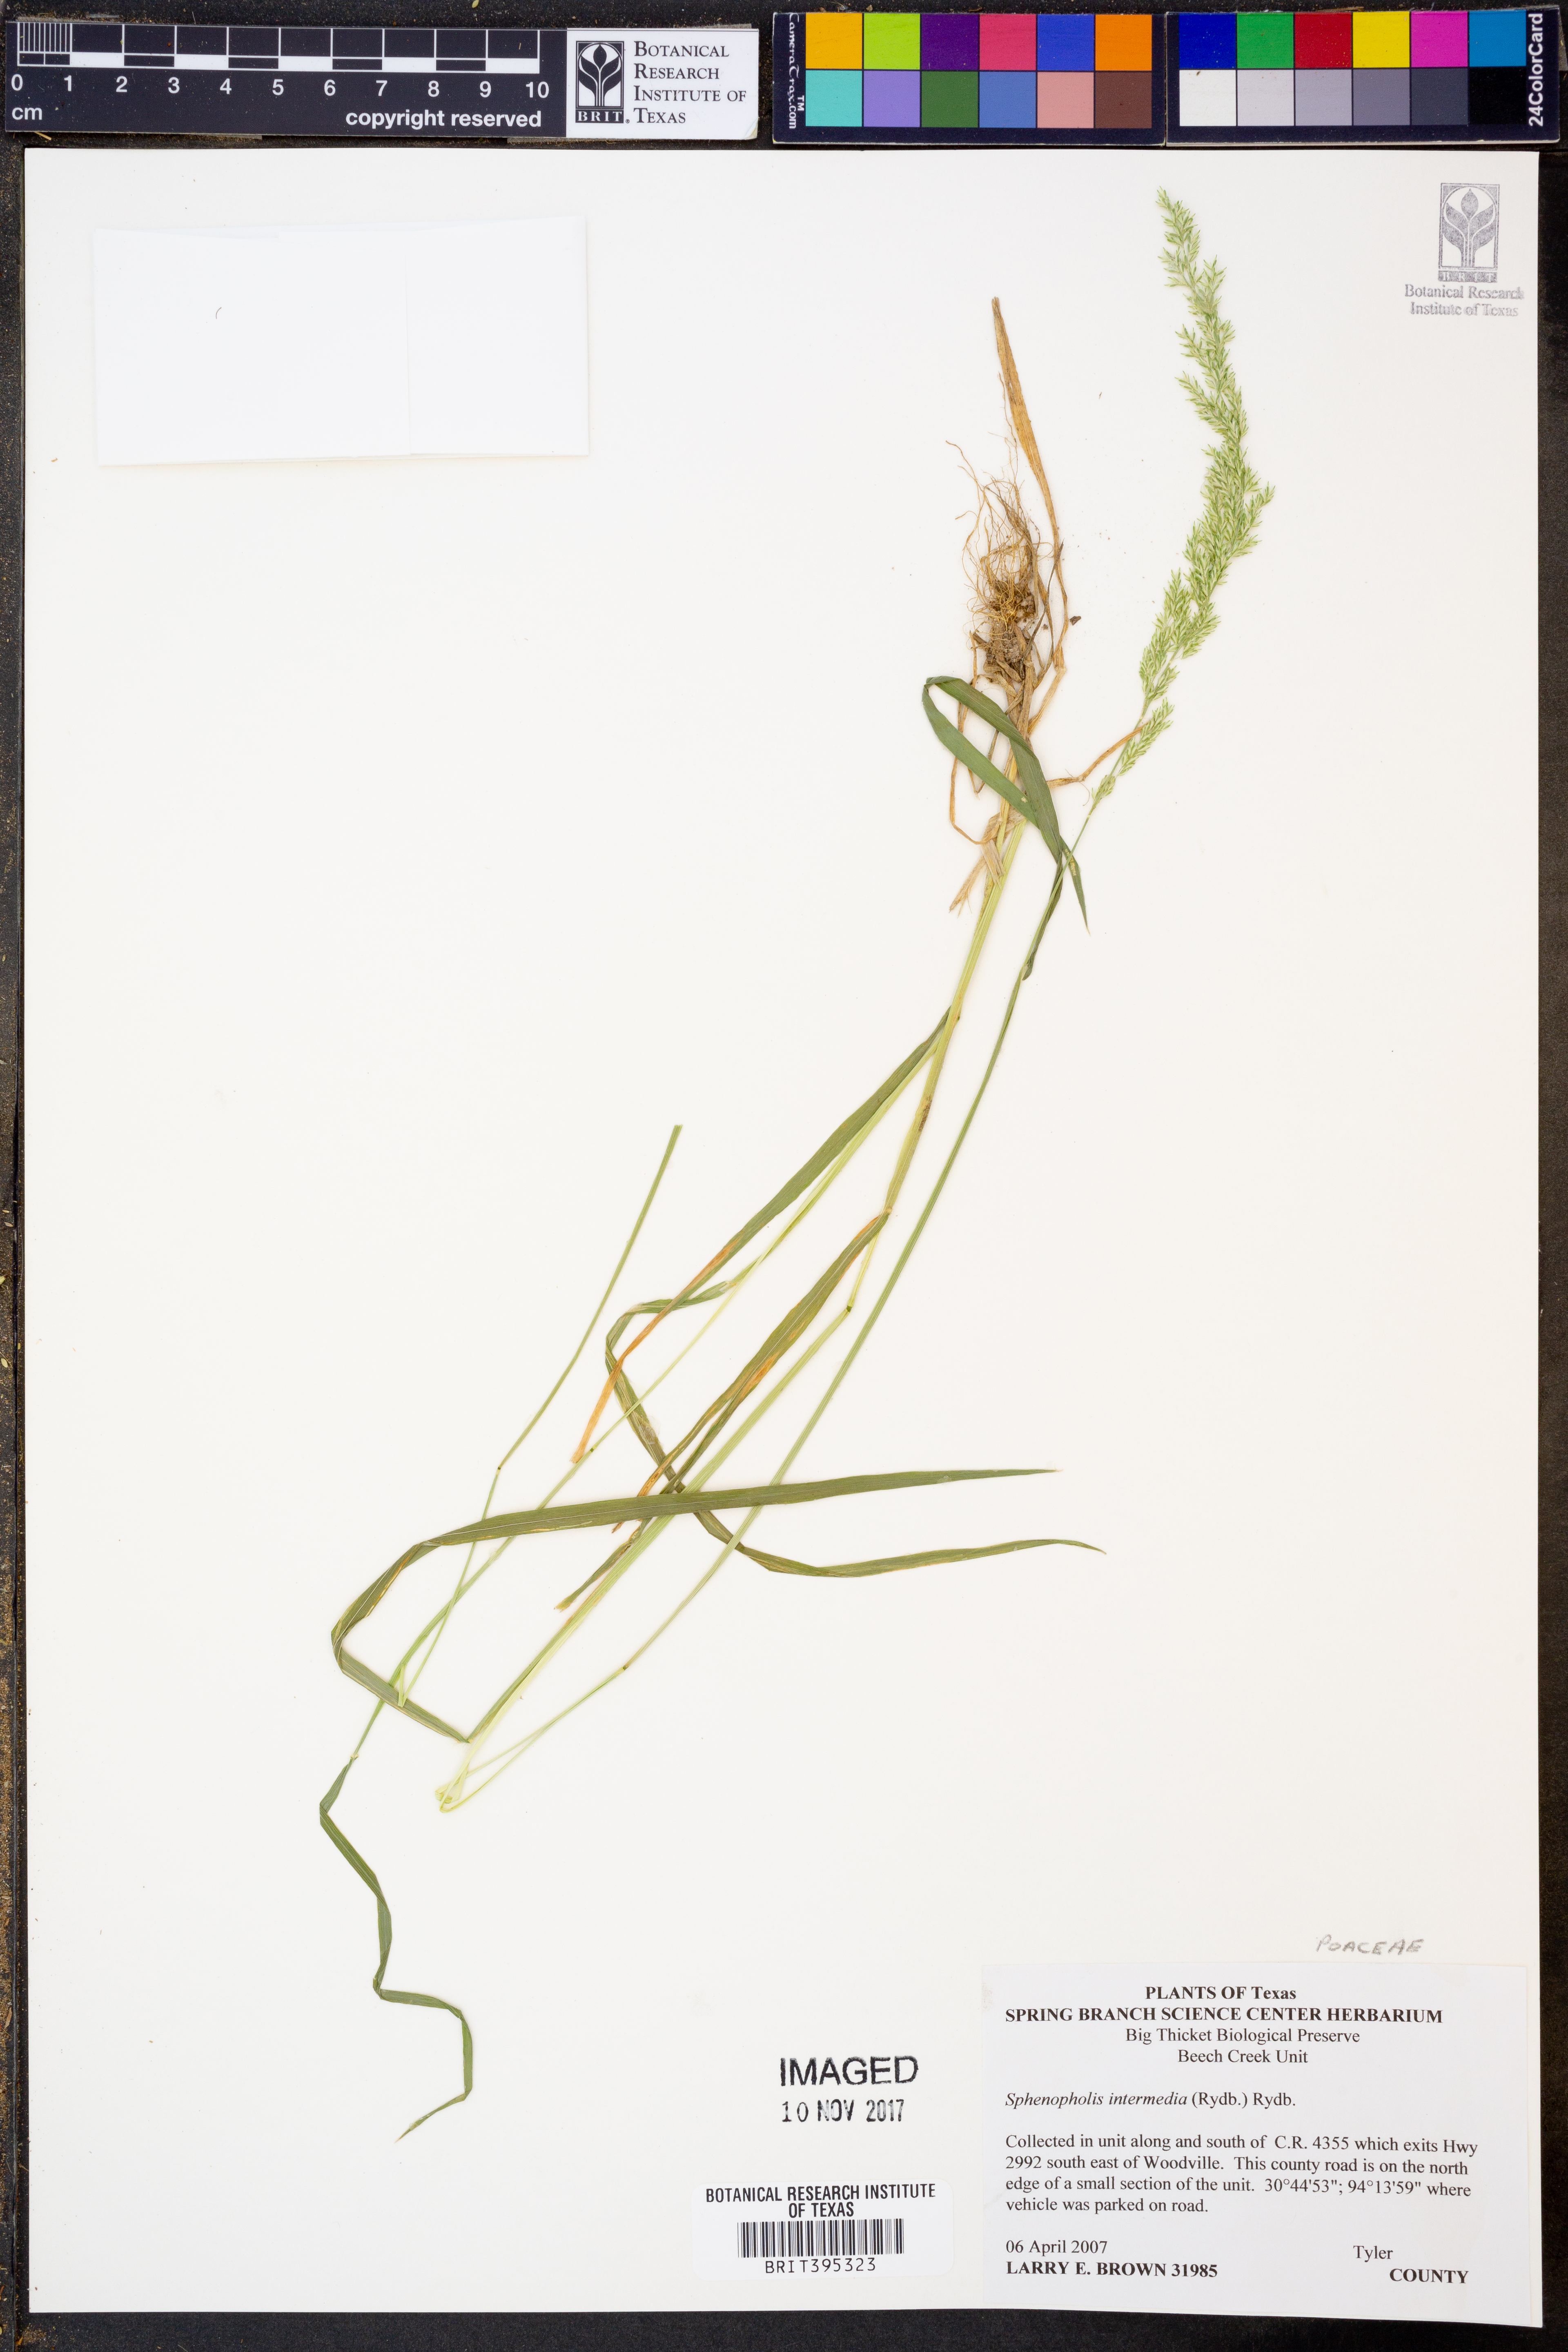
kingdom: Plantae
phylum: Tracheophyta
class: Liliopsida
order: Poales
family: Poaceae
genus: Sphenopholis
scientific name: Sphenopholis intermedia
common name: Intermediate eaton's grass
